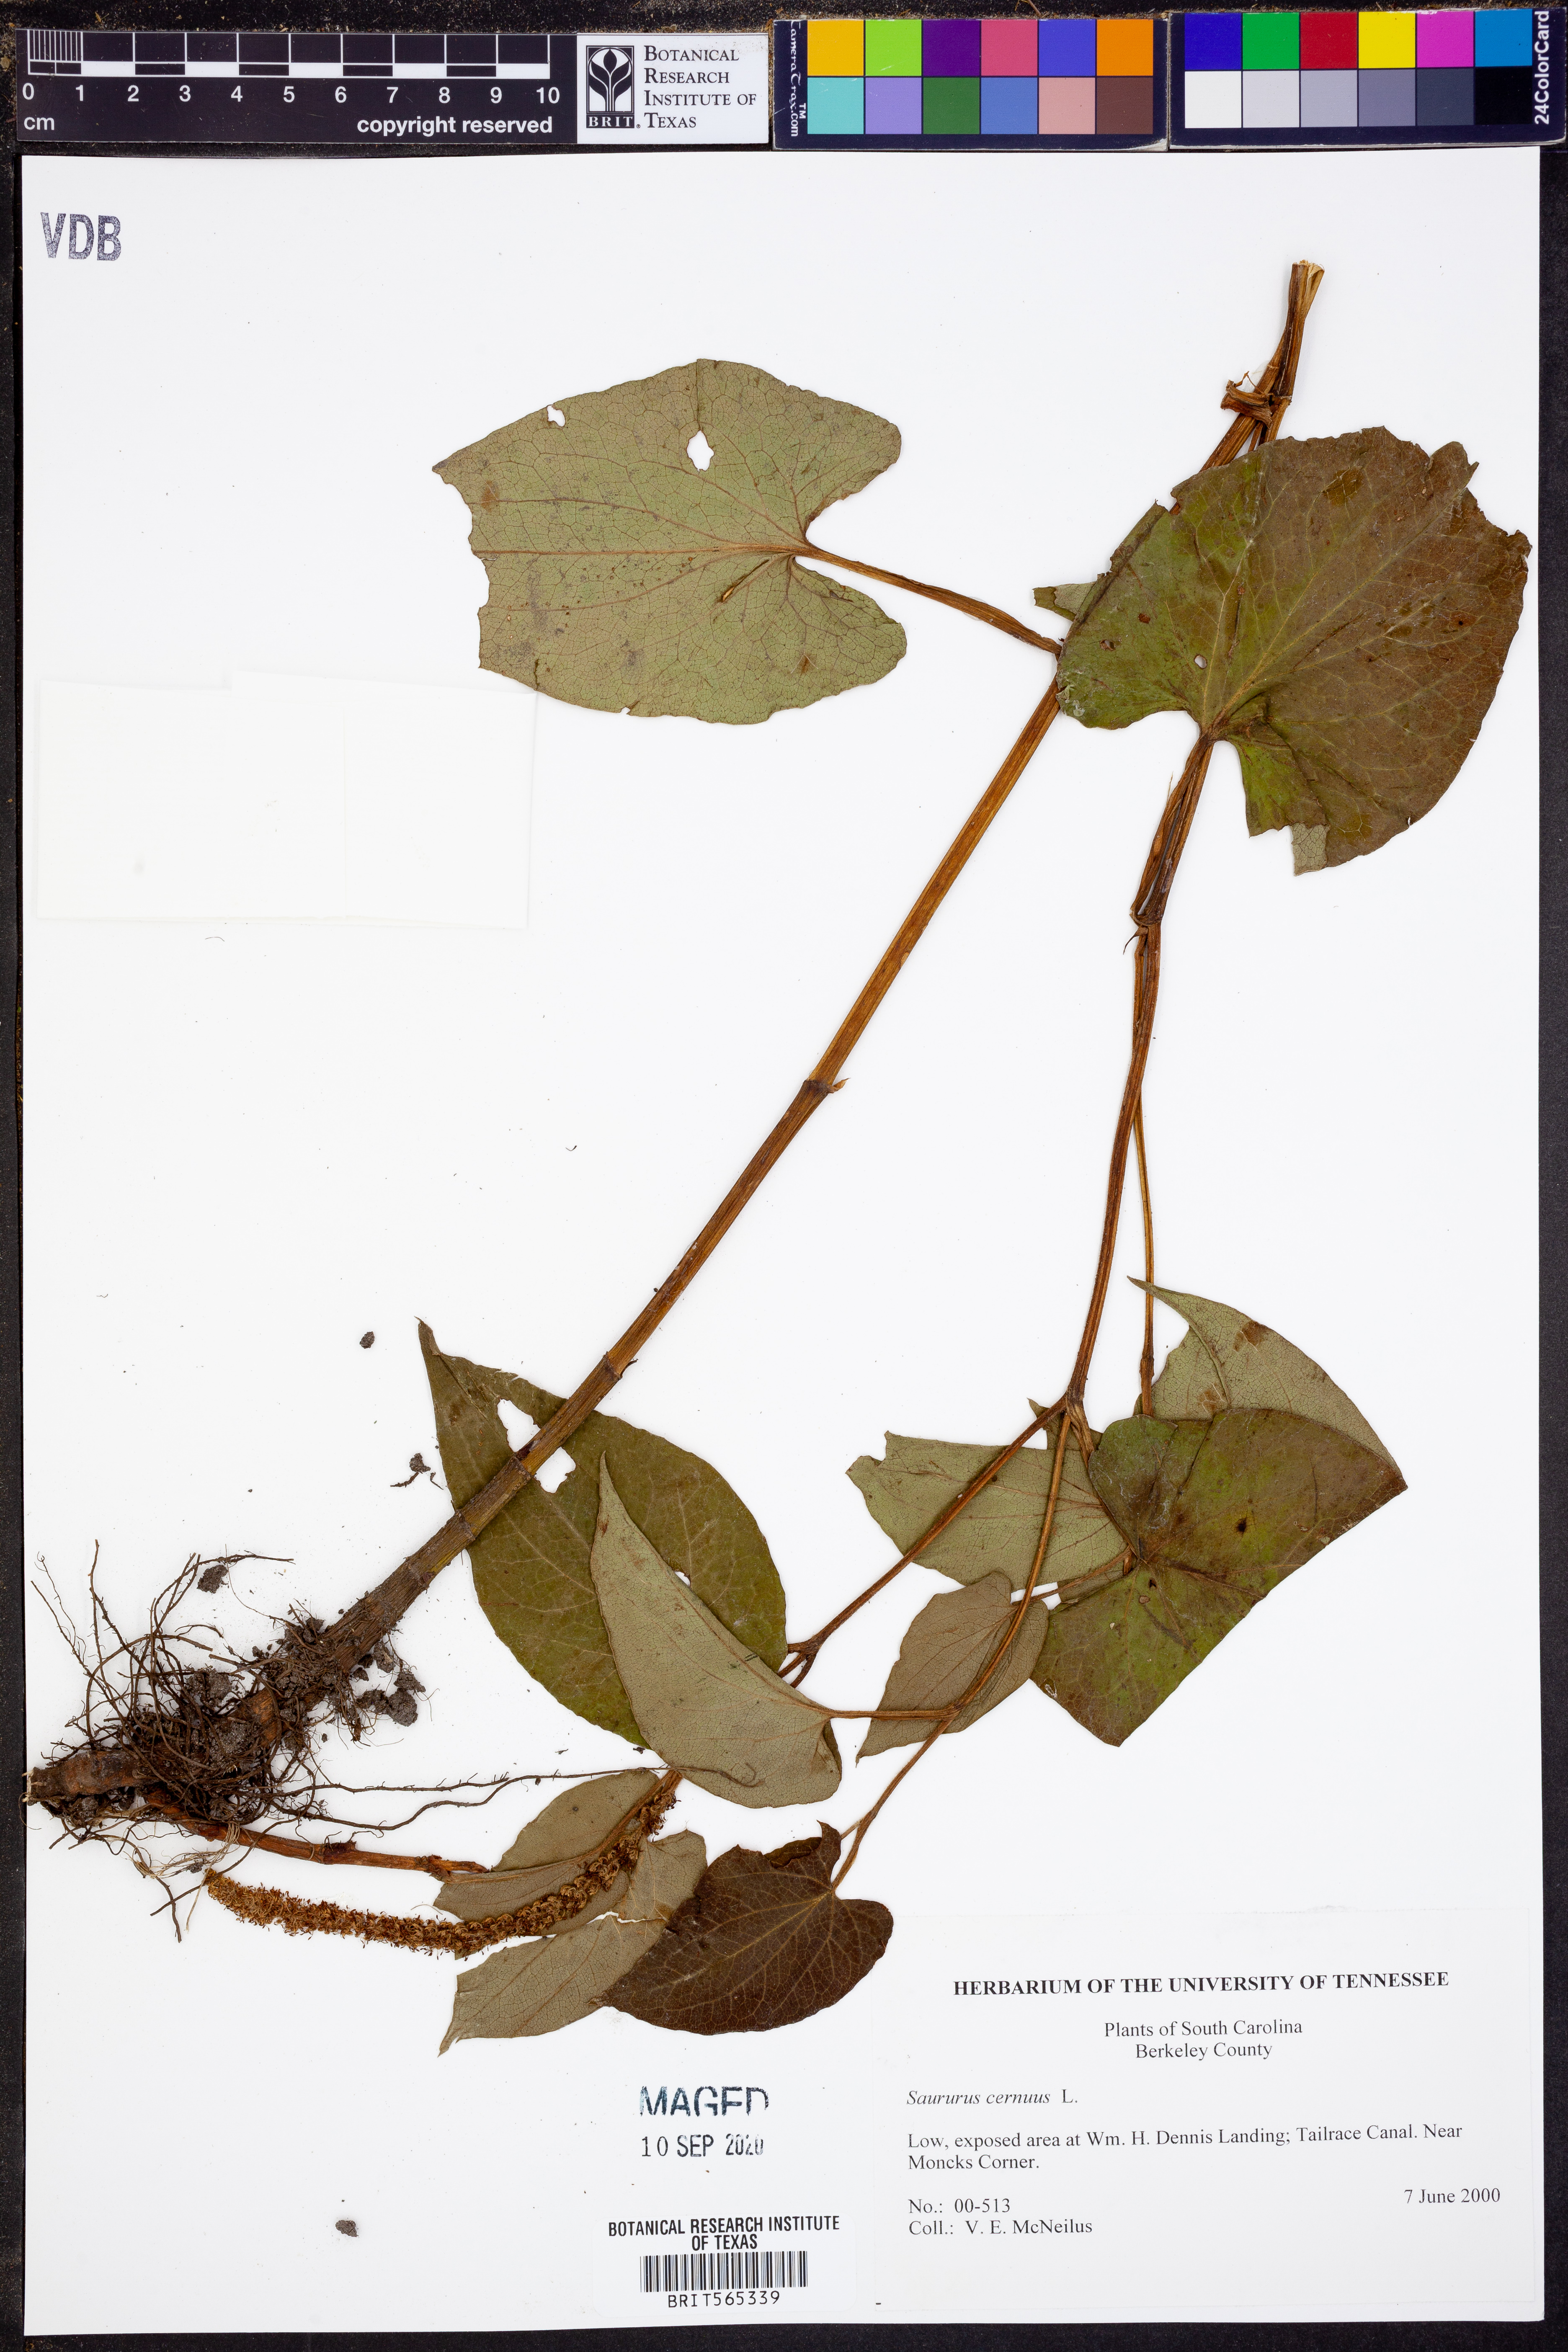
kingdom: Plantae
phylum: Tracheophyta
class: Magnoliopsida
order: Piperales
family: Saururaceae
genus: Saururus
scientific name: Saururus cernuus
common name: Lizard's-tail
